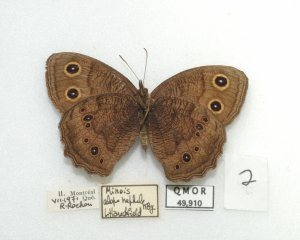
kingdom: Animalia
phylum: Arthropoda
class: Insecta
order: Lepidoptera
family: Nymphalidae
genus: Cercyonis
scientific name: Cercyonis pegala
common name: Common Wood-Nymph
